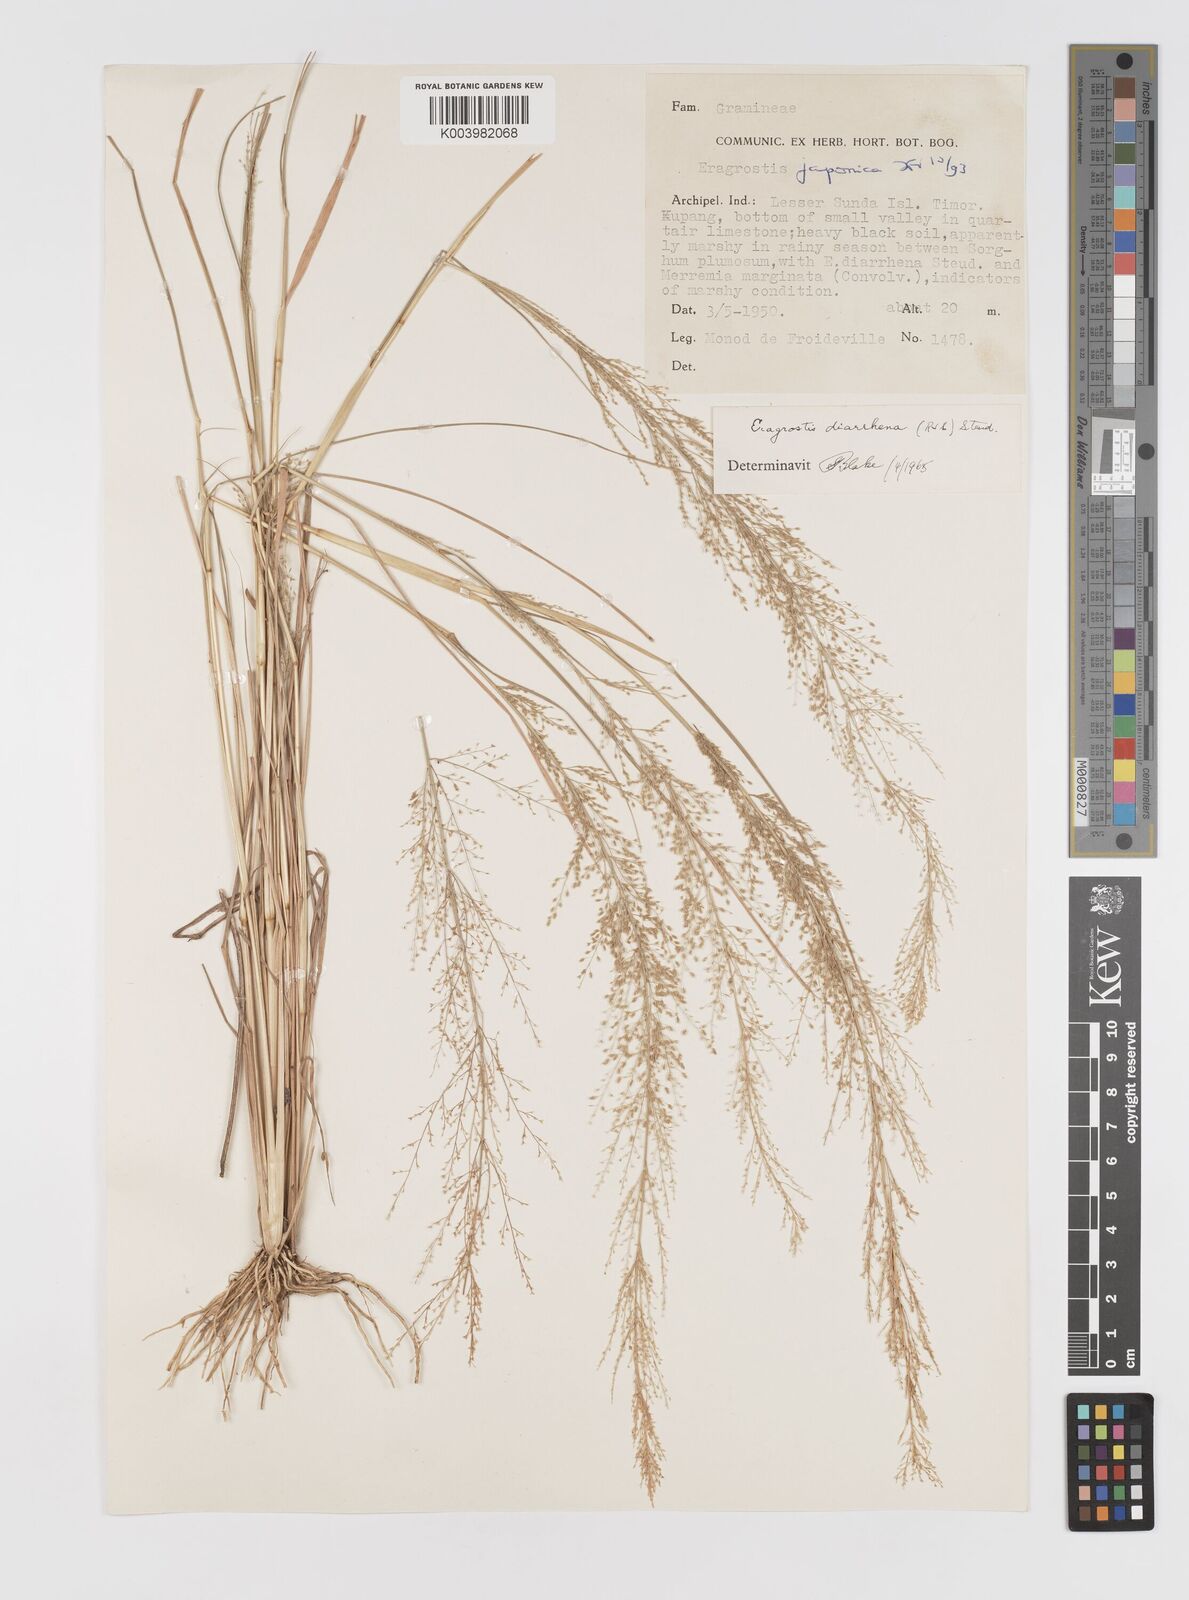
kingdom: Plantae
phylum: Tracheophyta
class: Liliopsida
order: Poales
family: Poaceae
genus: Eragrostis
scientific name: Eragrostis japonica
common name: Pond lovegrass
